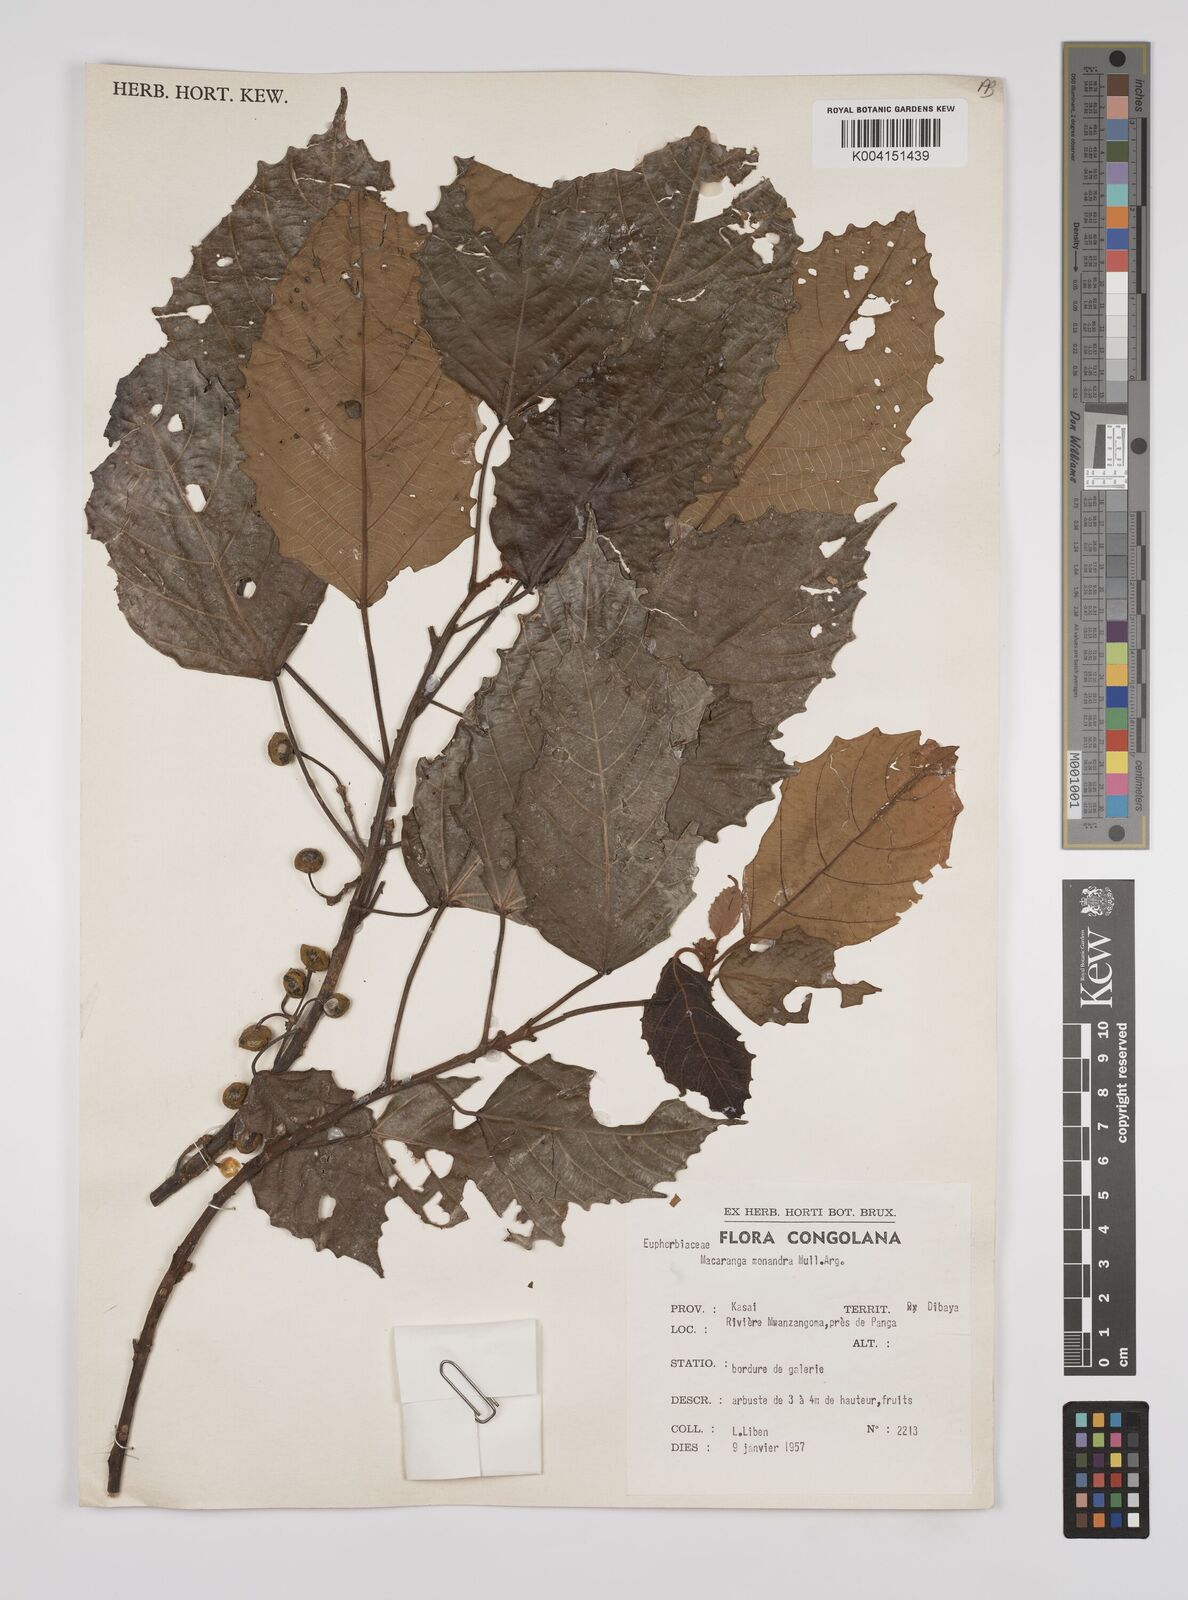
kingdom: Plantae
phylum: Tracheophyta
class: Magnoliopsida
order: Malpighiales
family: Euphorbiaceae
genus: Macaranga
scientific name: Macaranga monandra
